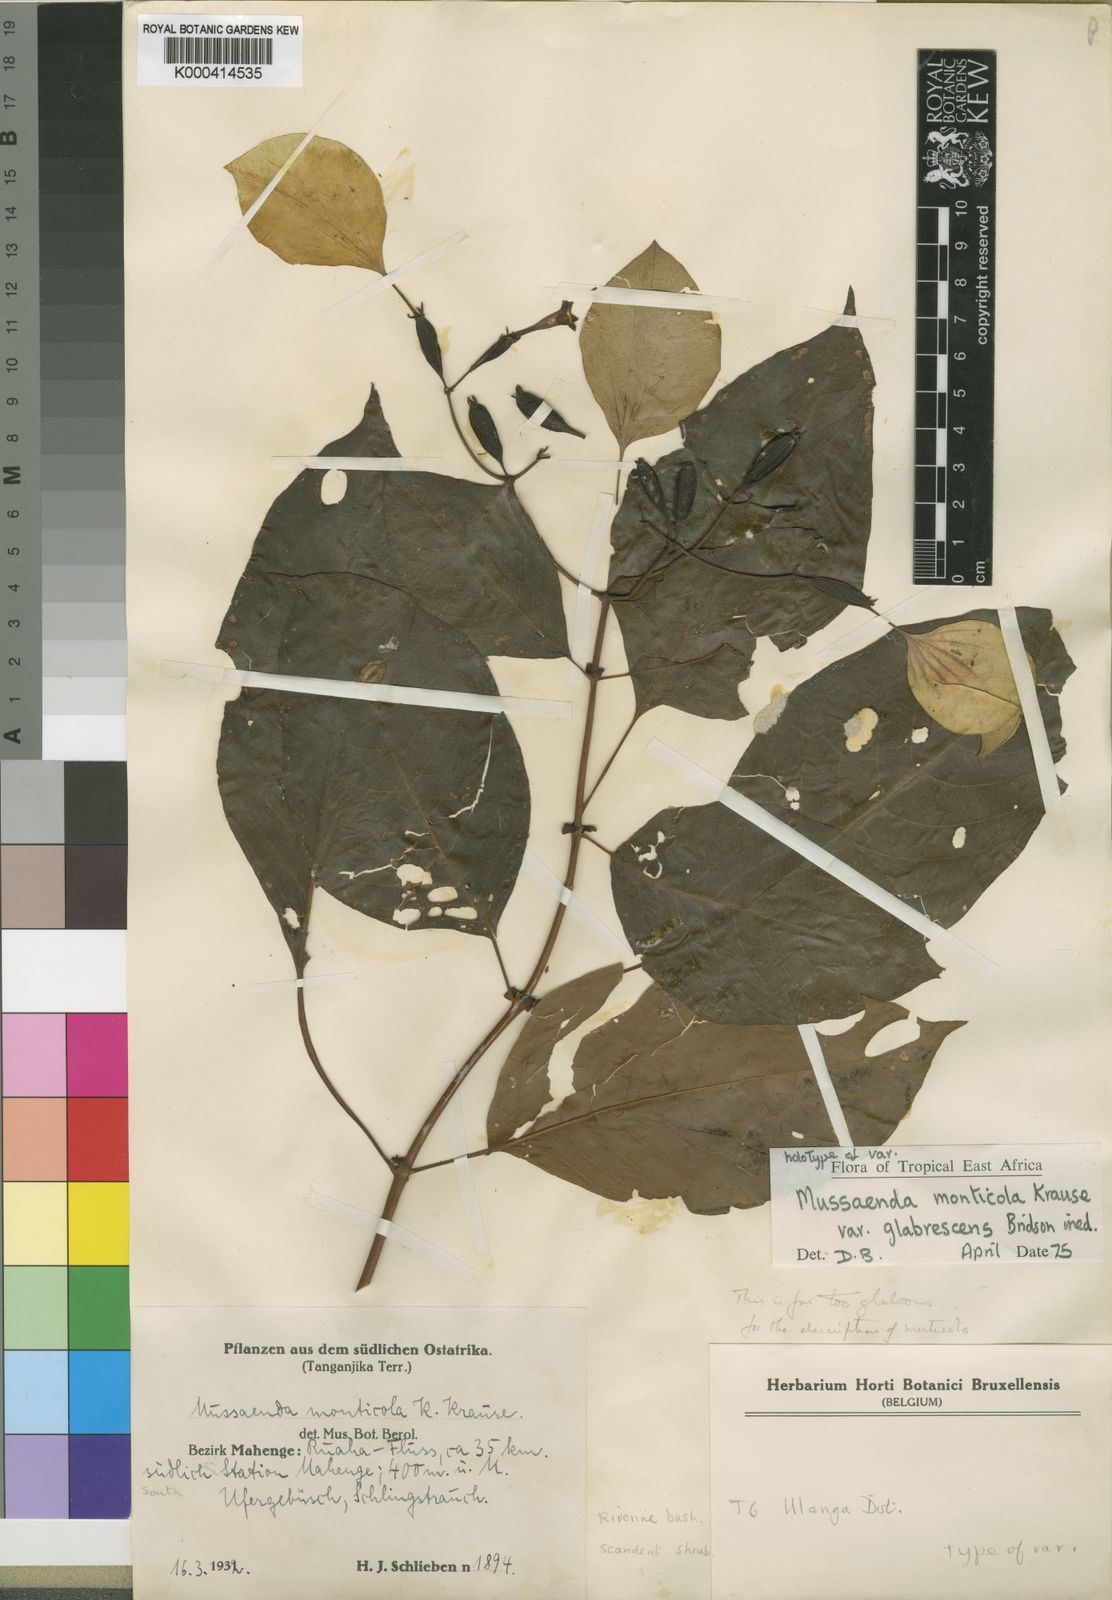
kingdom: Plantae
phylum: Tracheophyta
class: Magnoliopsida
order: Gentianales
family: Rubiaceae
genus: Mussaenda
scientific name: Mussaenda monticola
